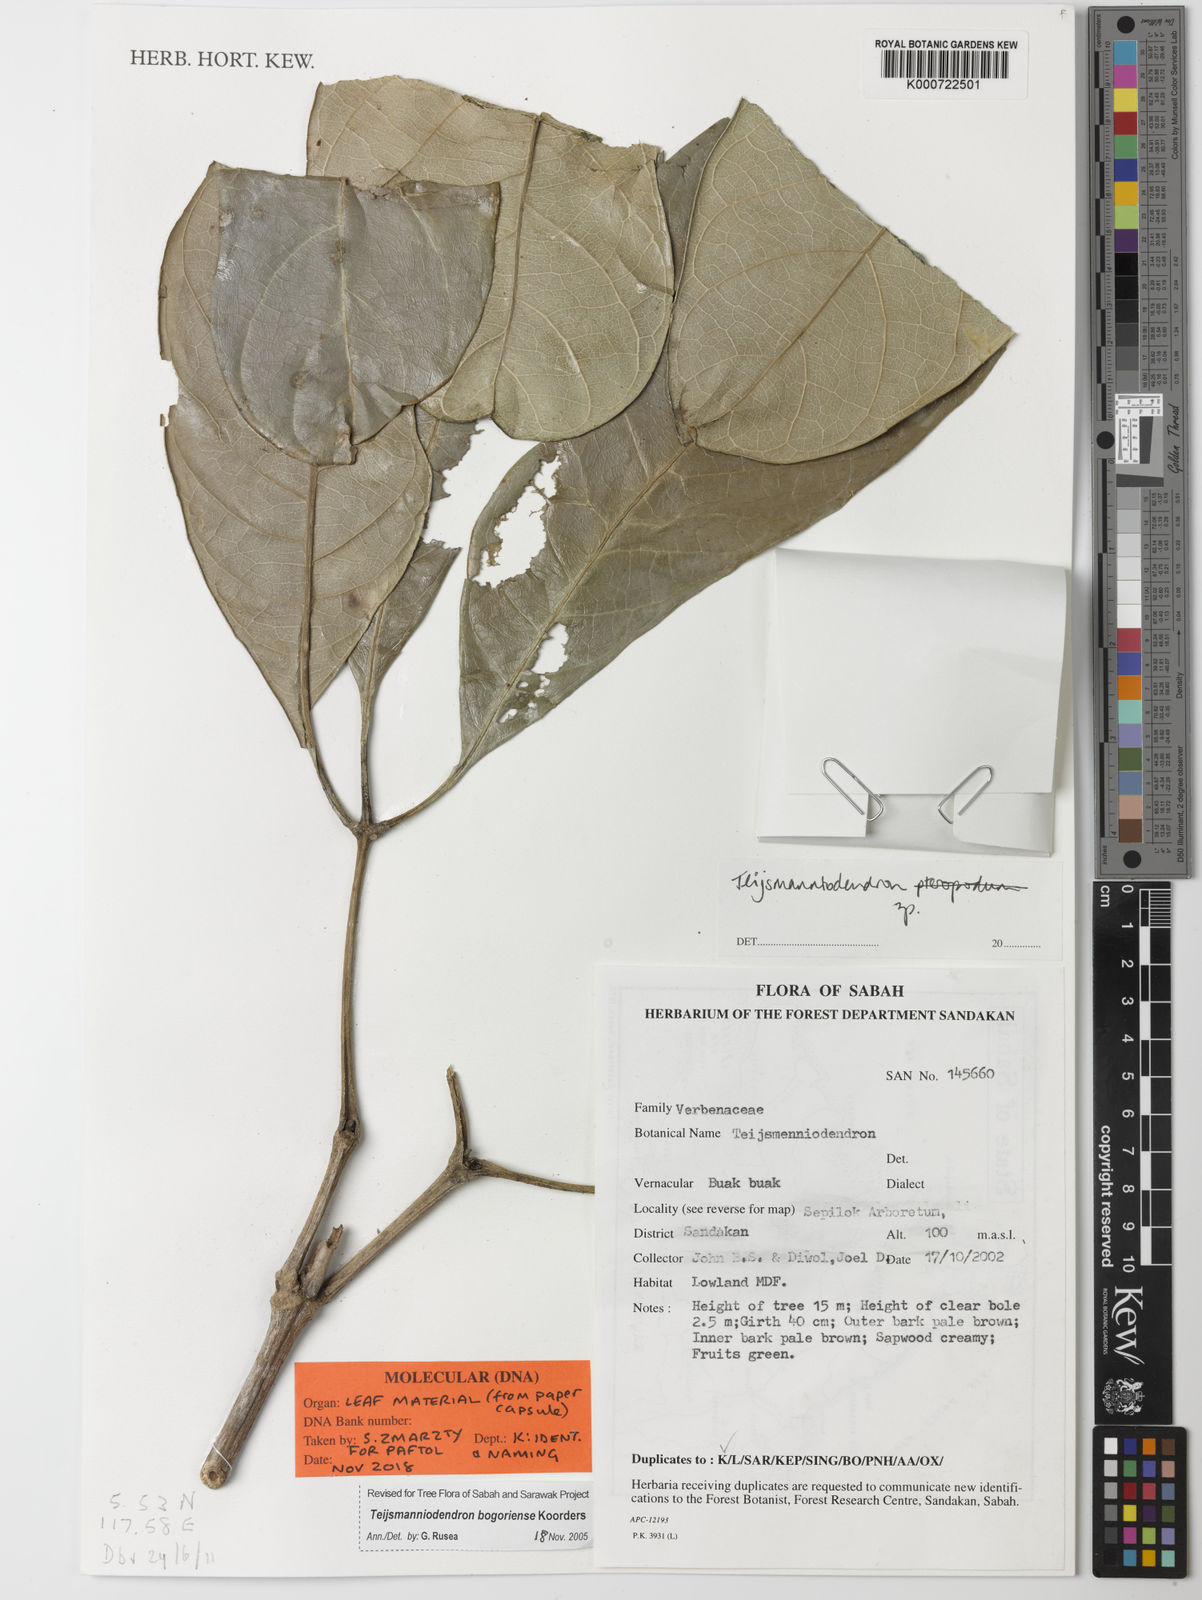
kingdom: Plantae
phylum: Tracheophyta
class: Magnoliopsida
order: Lamiales
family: Lamiaceae
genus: Teijsmanniodendron
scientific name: Teijsmanniodendron bogoriense
